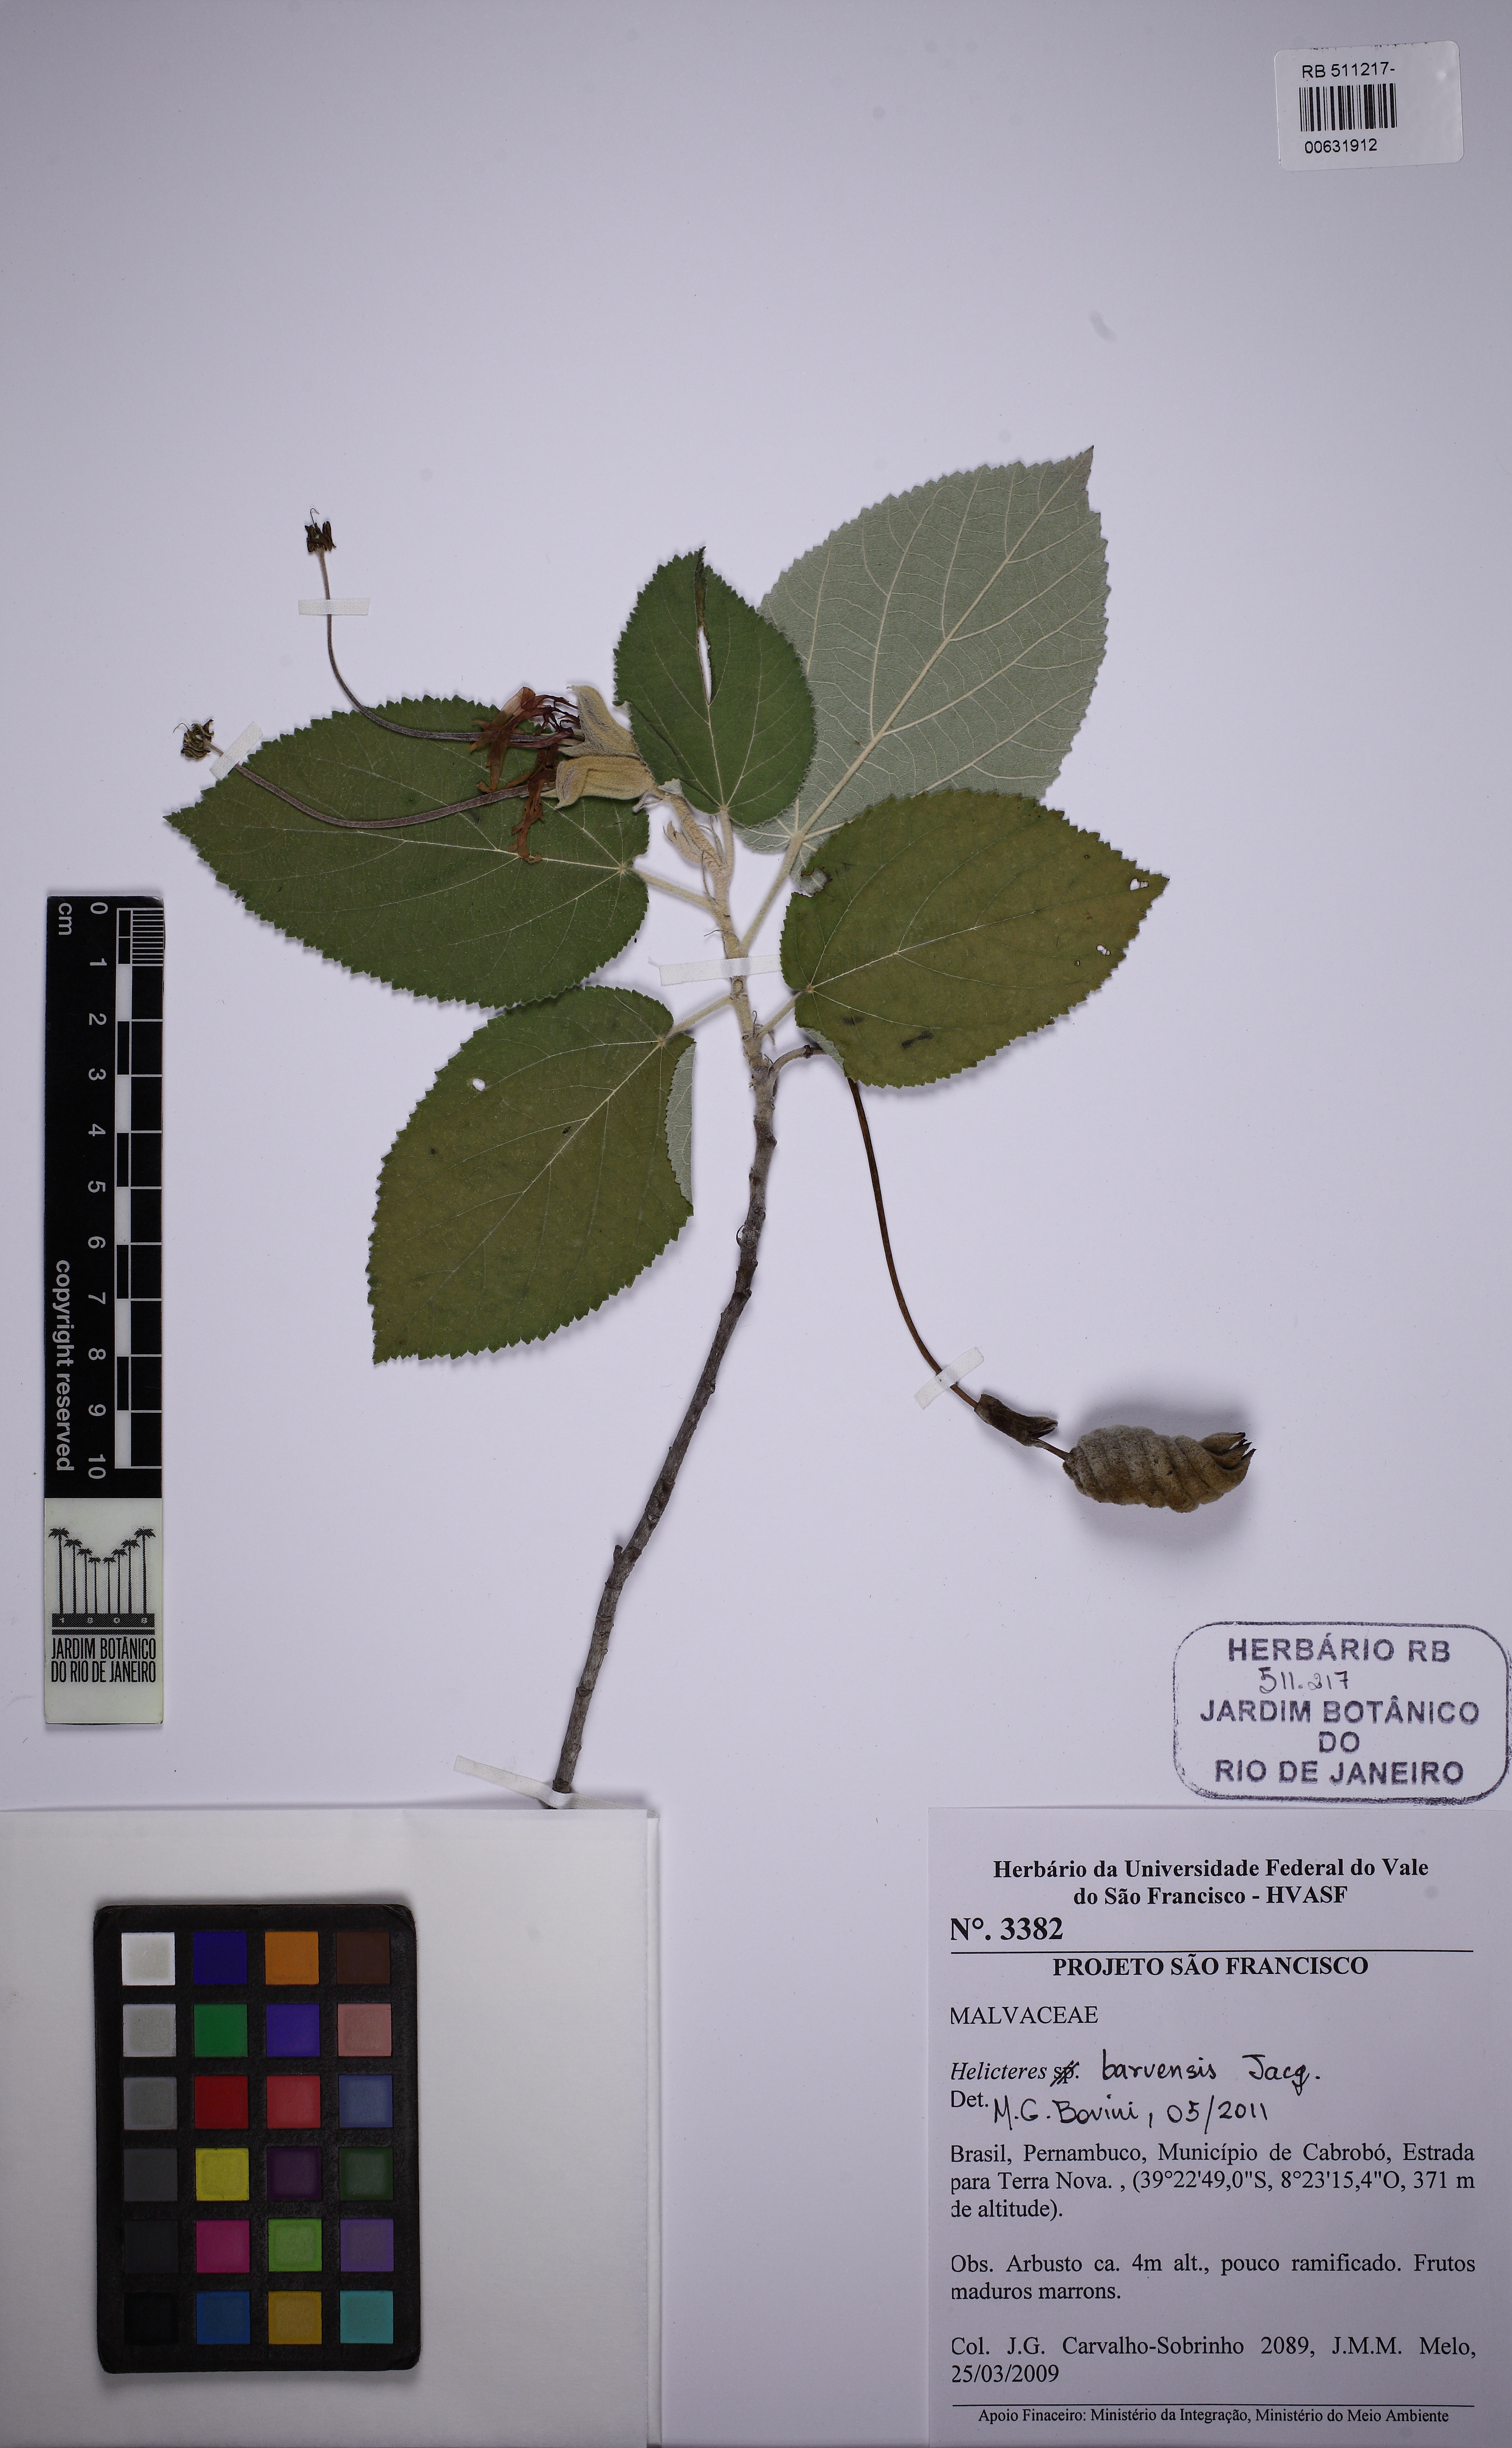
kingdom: Plantae
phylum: Tracheophyta
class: Magnoliopsida
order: Malvales
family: Malvaceae
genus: Helicteres
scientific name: Helicteres baruensis
